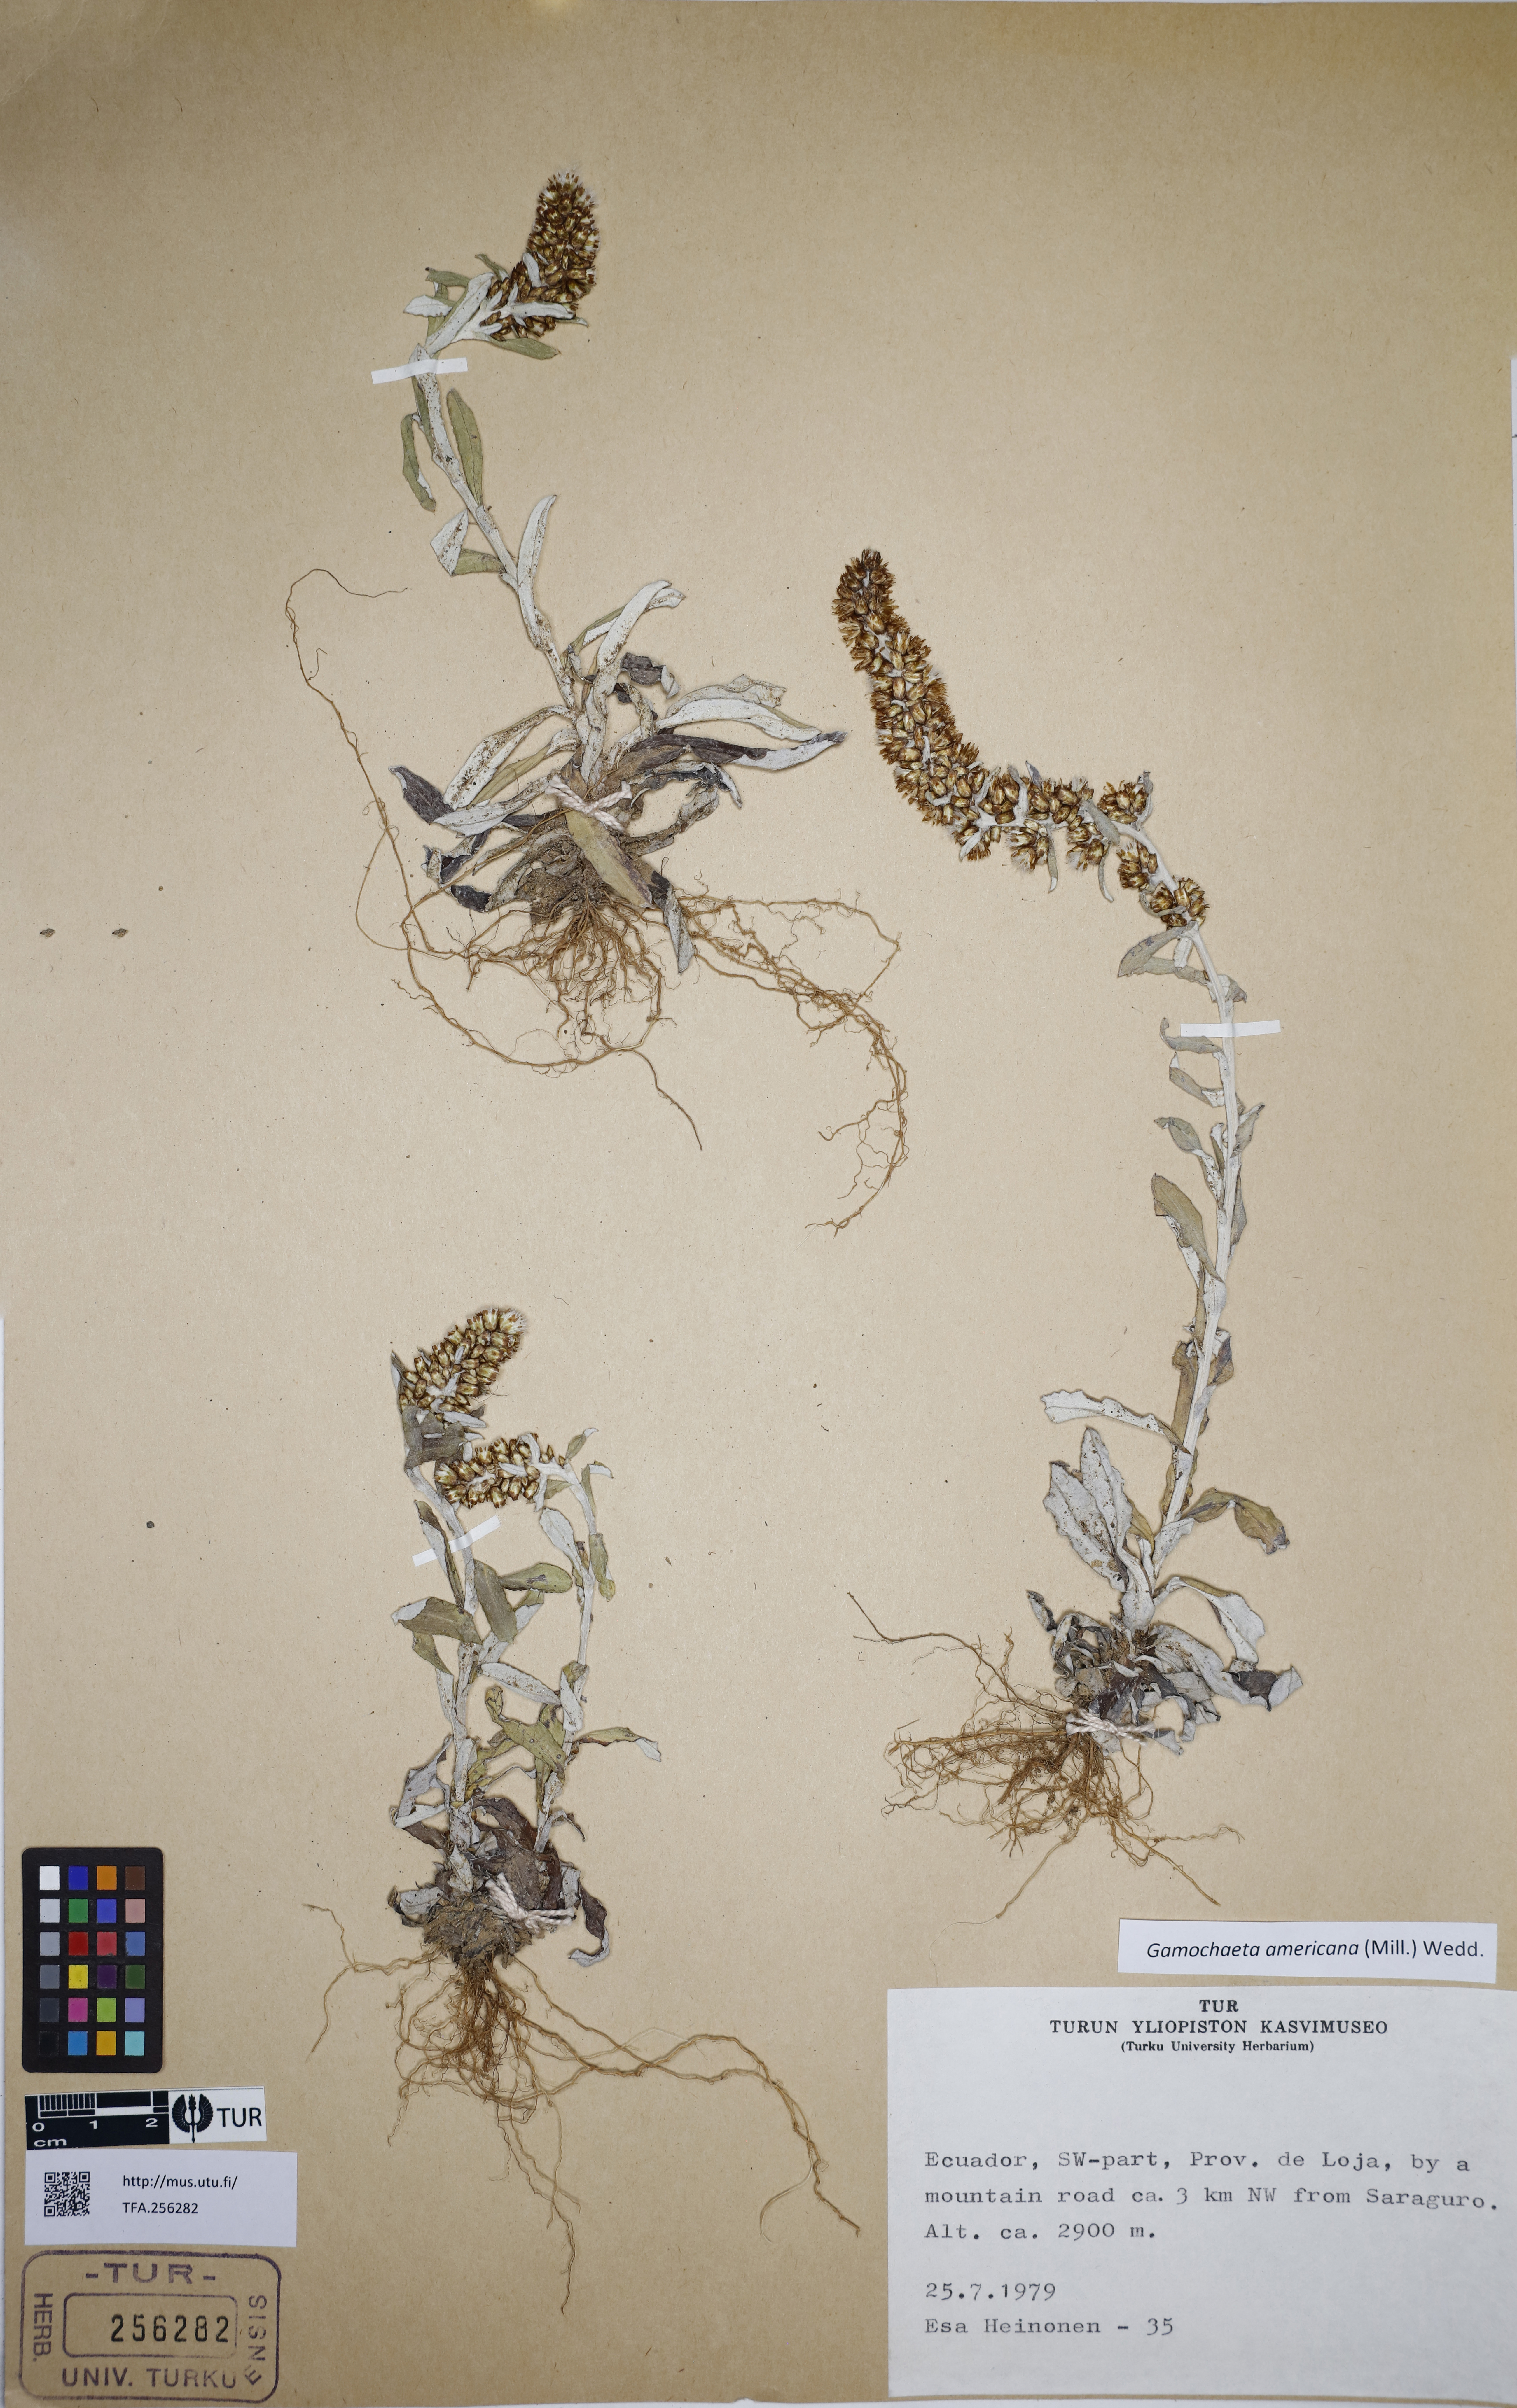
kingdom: Plantae
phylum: Tracheophyta
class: Magnoliopsida
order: Asterales
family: Asteraceae
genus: Gamochaeta
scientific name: Gamochaeta americana
